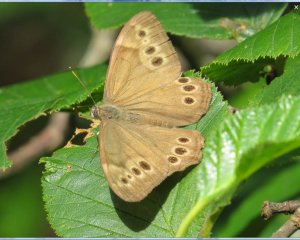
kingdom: Animalia
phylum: Arthropoda
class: Insecta
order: Lepidoptera
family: Nymphalidae
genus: Lethe
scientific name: Lethe anthedon
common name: Northern Pearly-Eye
